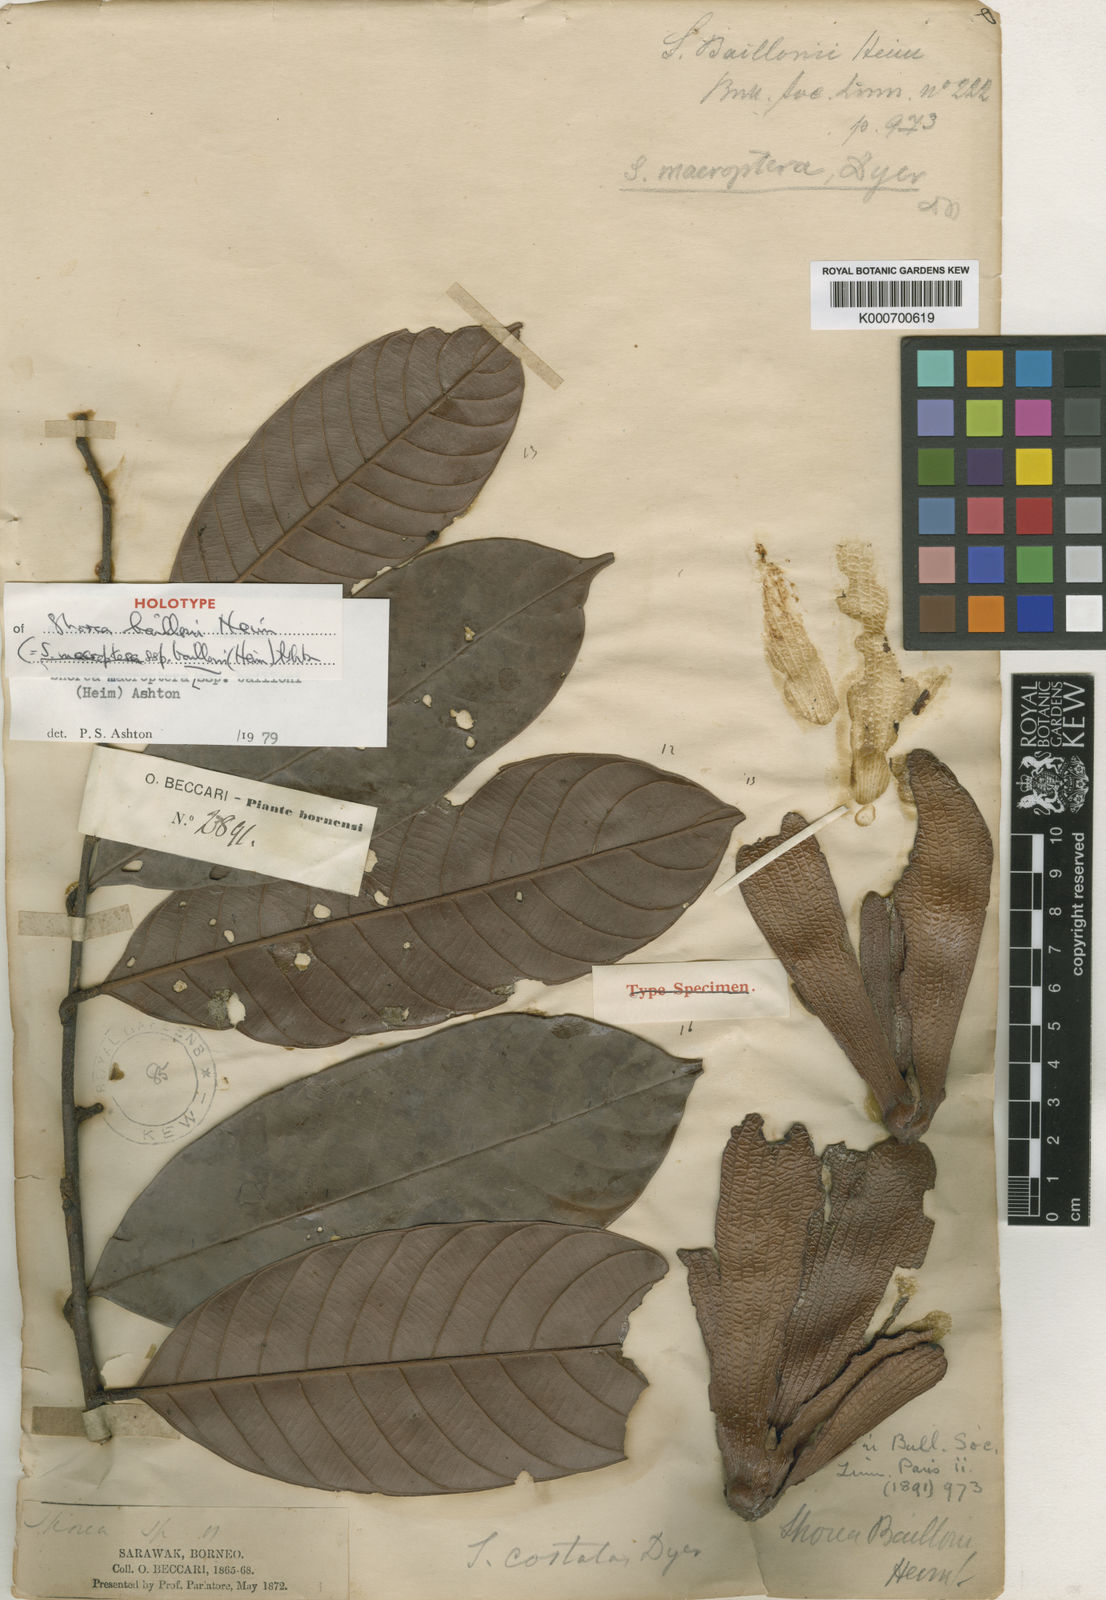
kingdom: Plantae
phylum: Tracheophyta
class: Magnoliopsida
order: Malvales
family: Dipterocarpaceae
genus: Shorea
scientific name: Shorea macroptera
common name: Light red meranti
